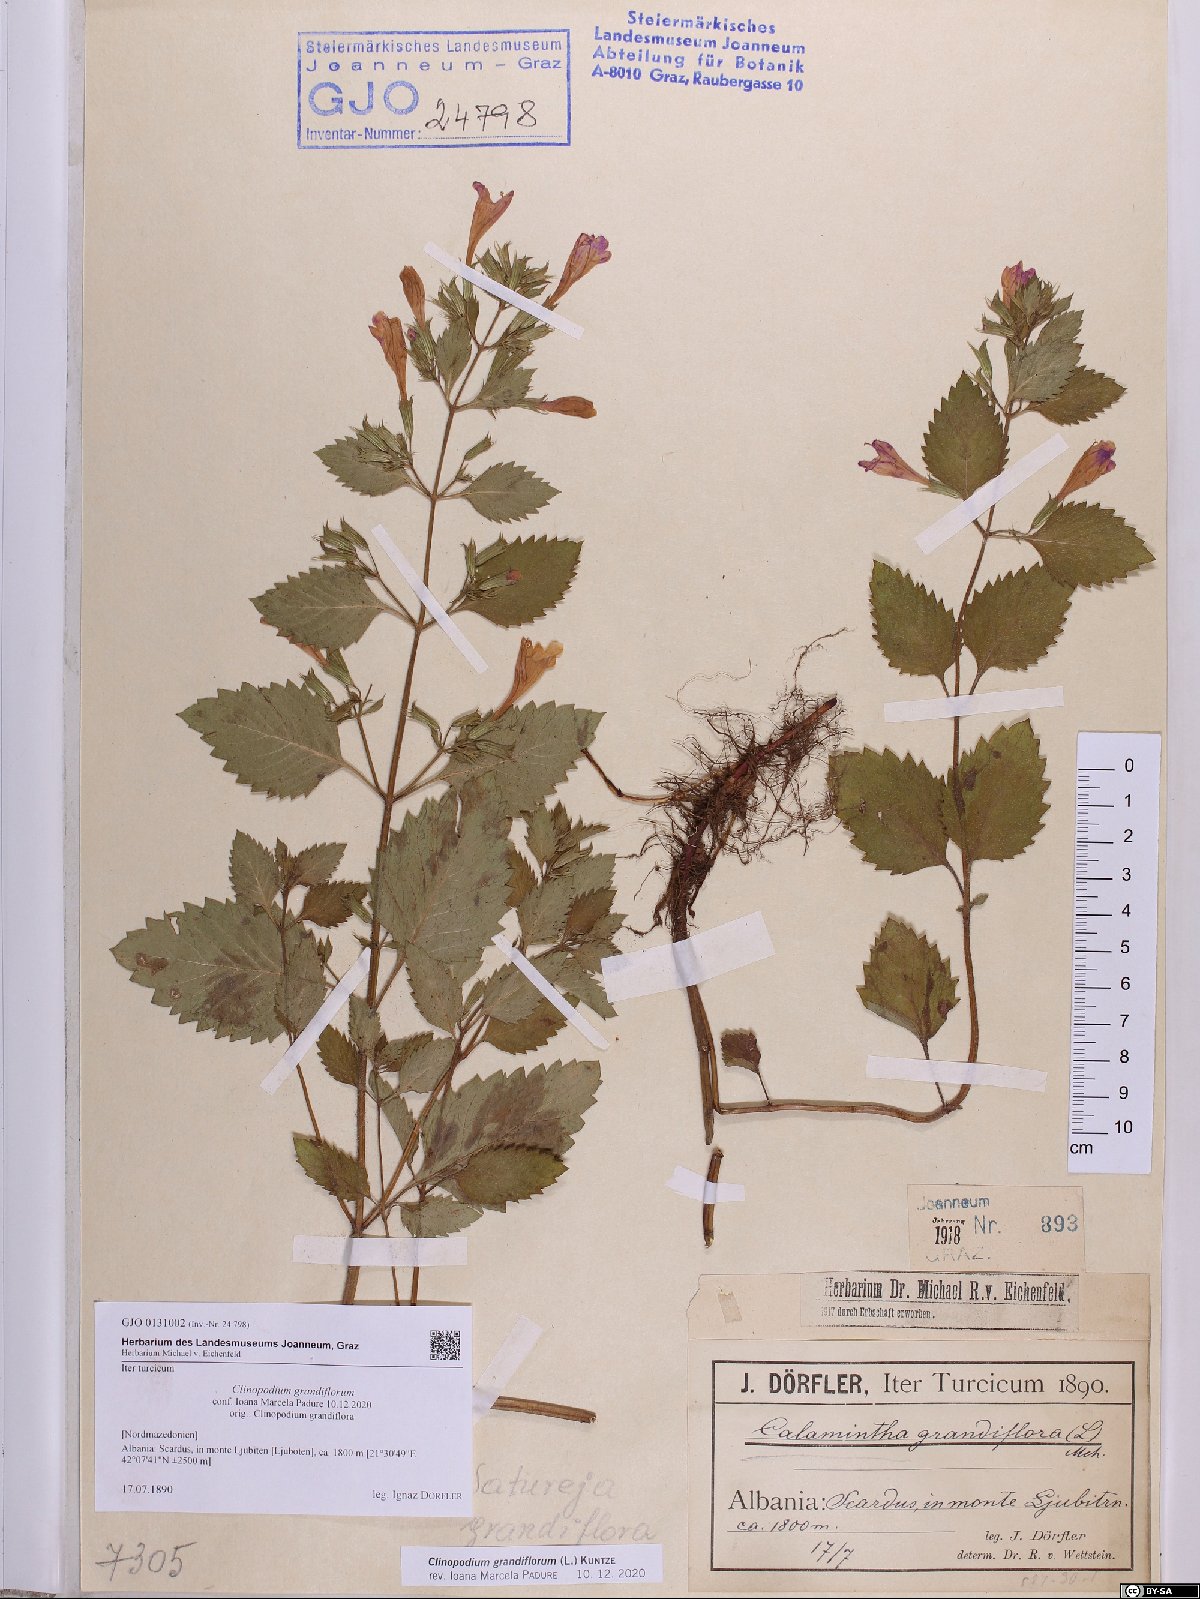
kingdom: Plantae
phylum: Tracheophyta
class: Magnoliopsida
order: Lamiales
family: Lamiaceae
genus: Clinopodium
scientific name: Clinopodium grandiflorum
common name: Greater calamint
